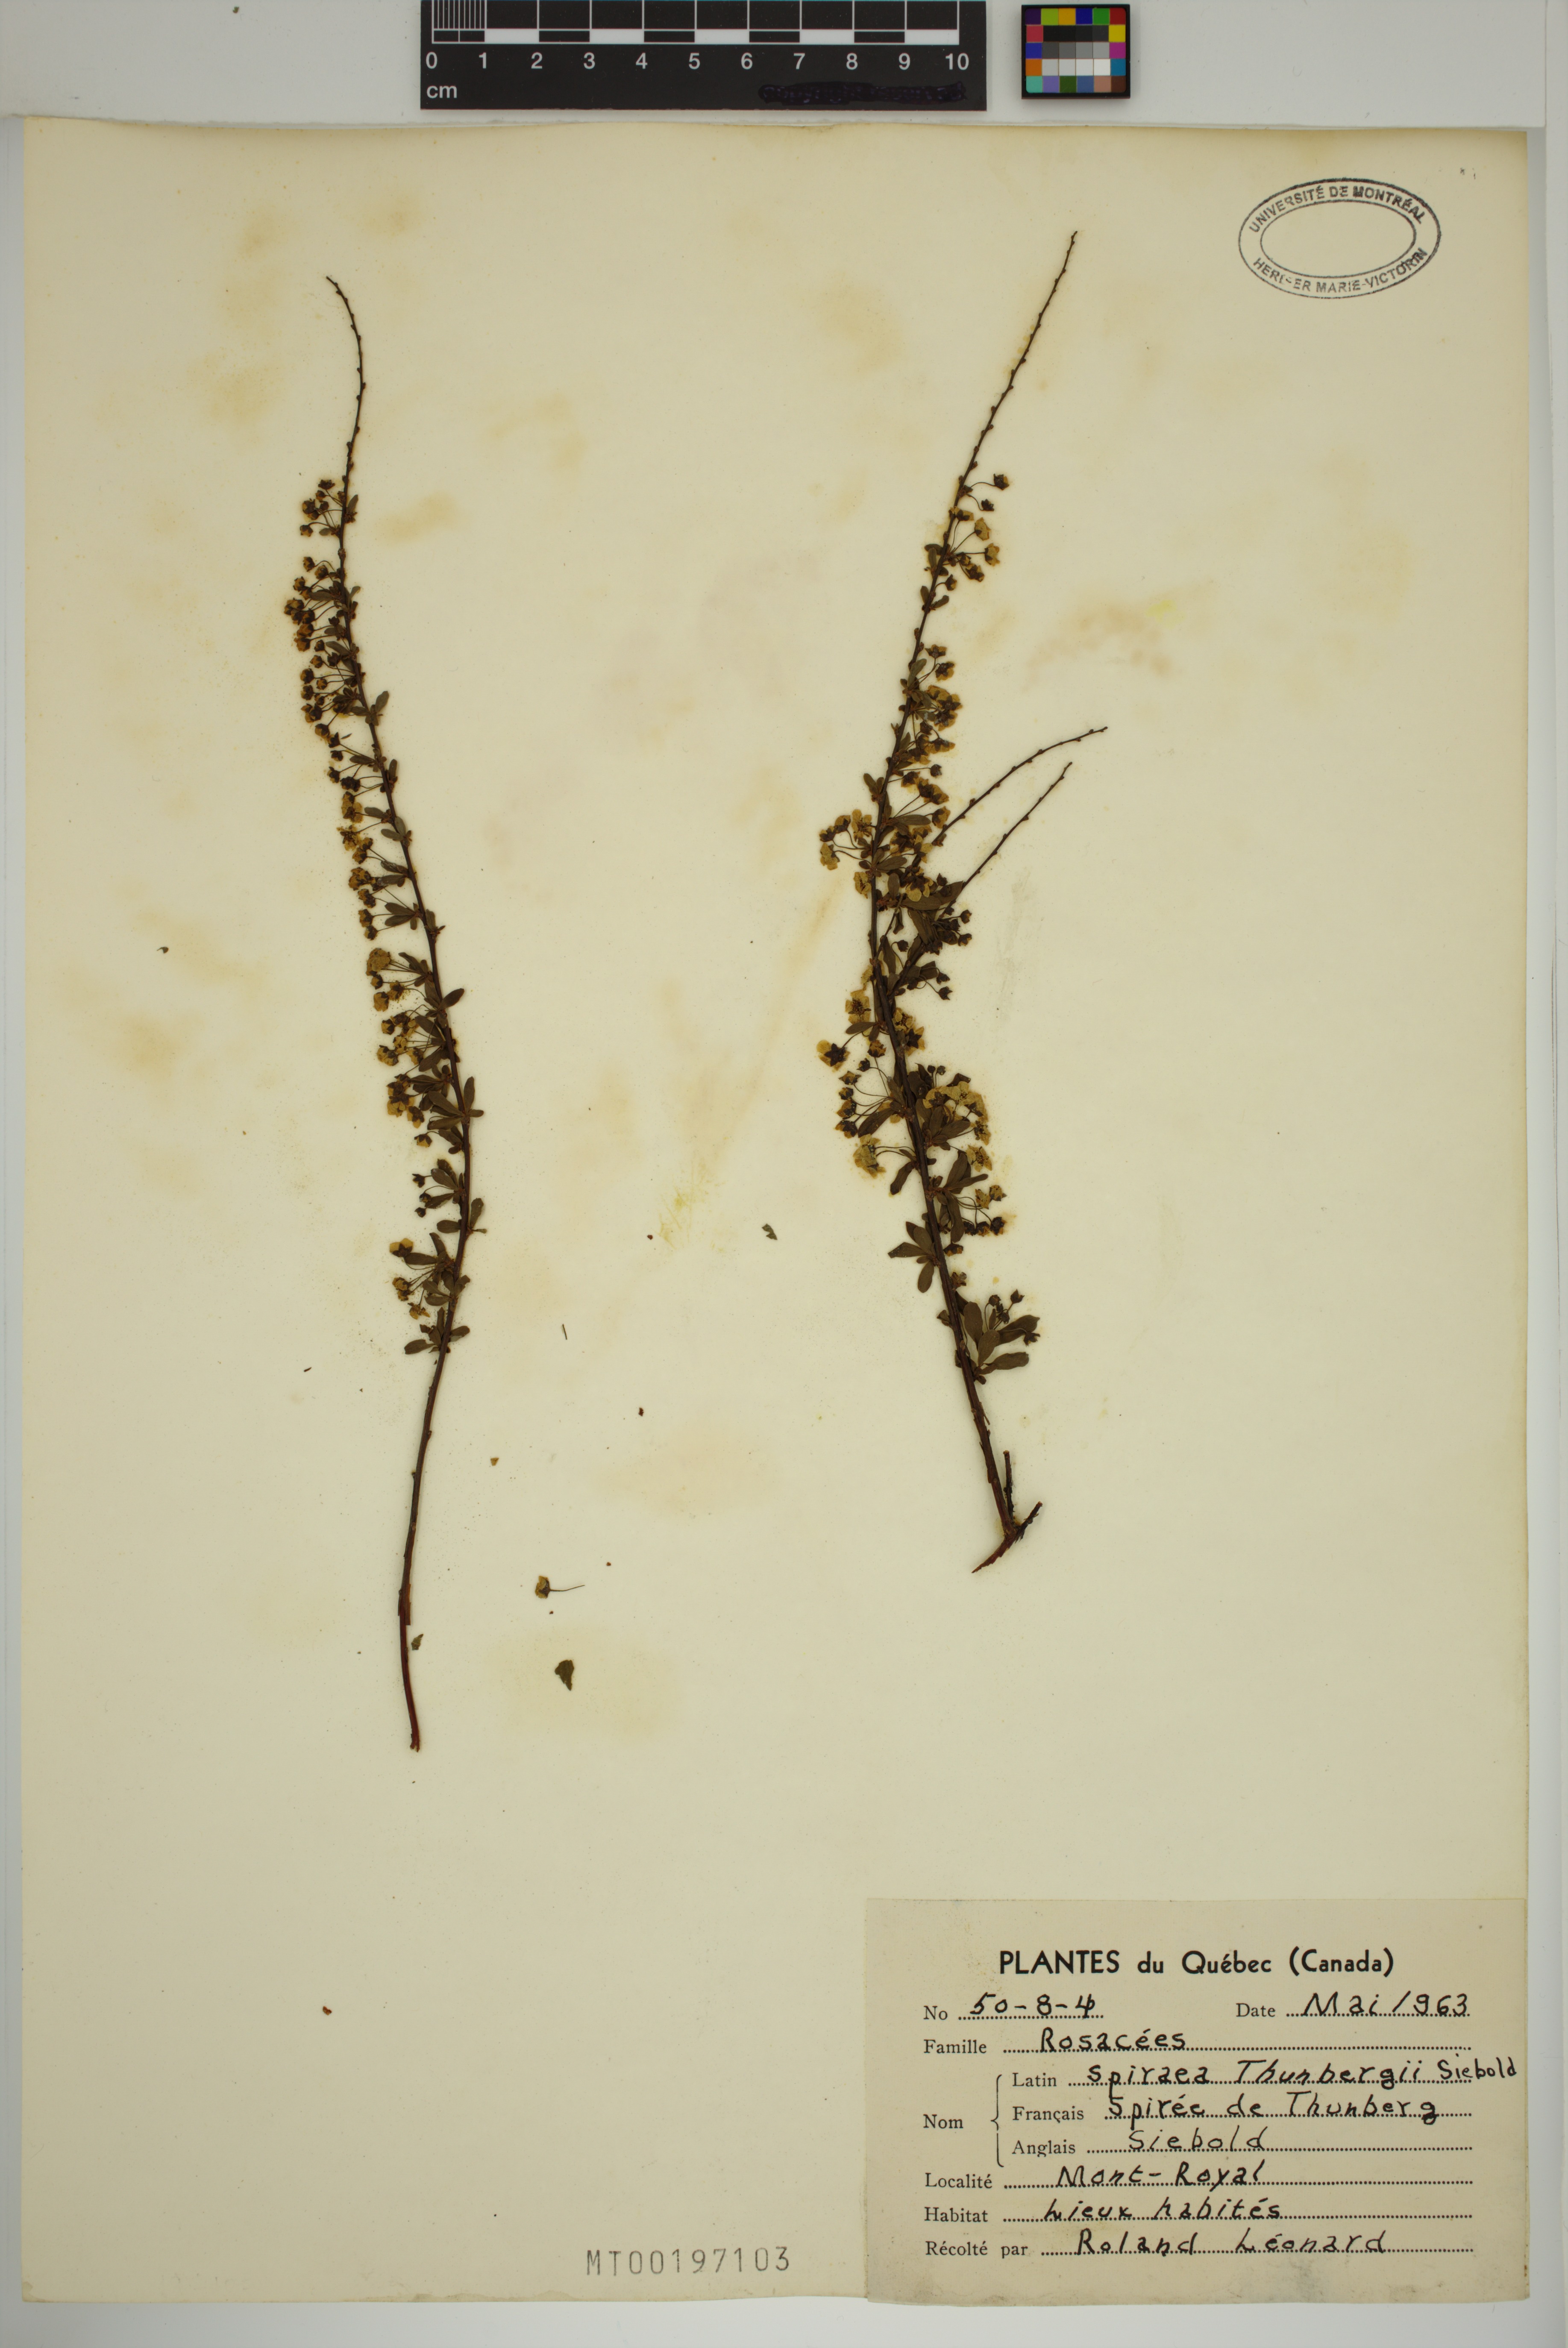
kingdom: Plantae
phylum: Tracheophyta
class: Magnoliopsida
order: Rosales
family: Rosaceae
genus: Spiraea
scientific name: Spiraea thunbergii
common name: Thunberg's meadowsweet
